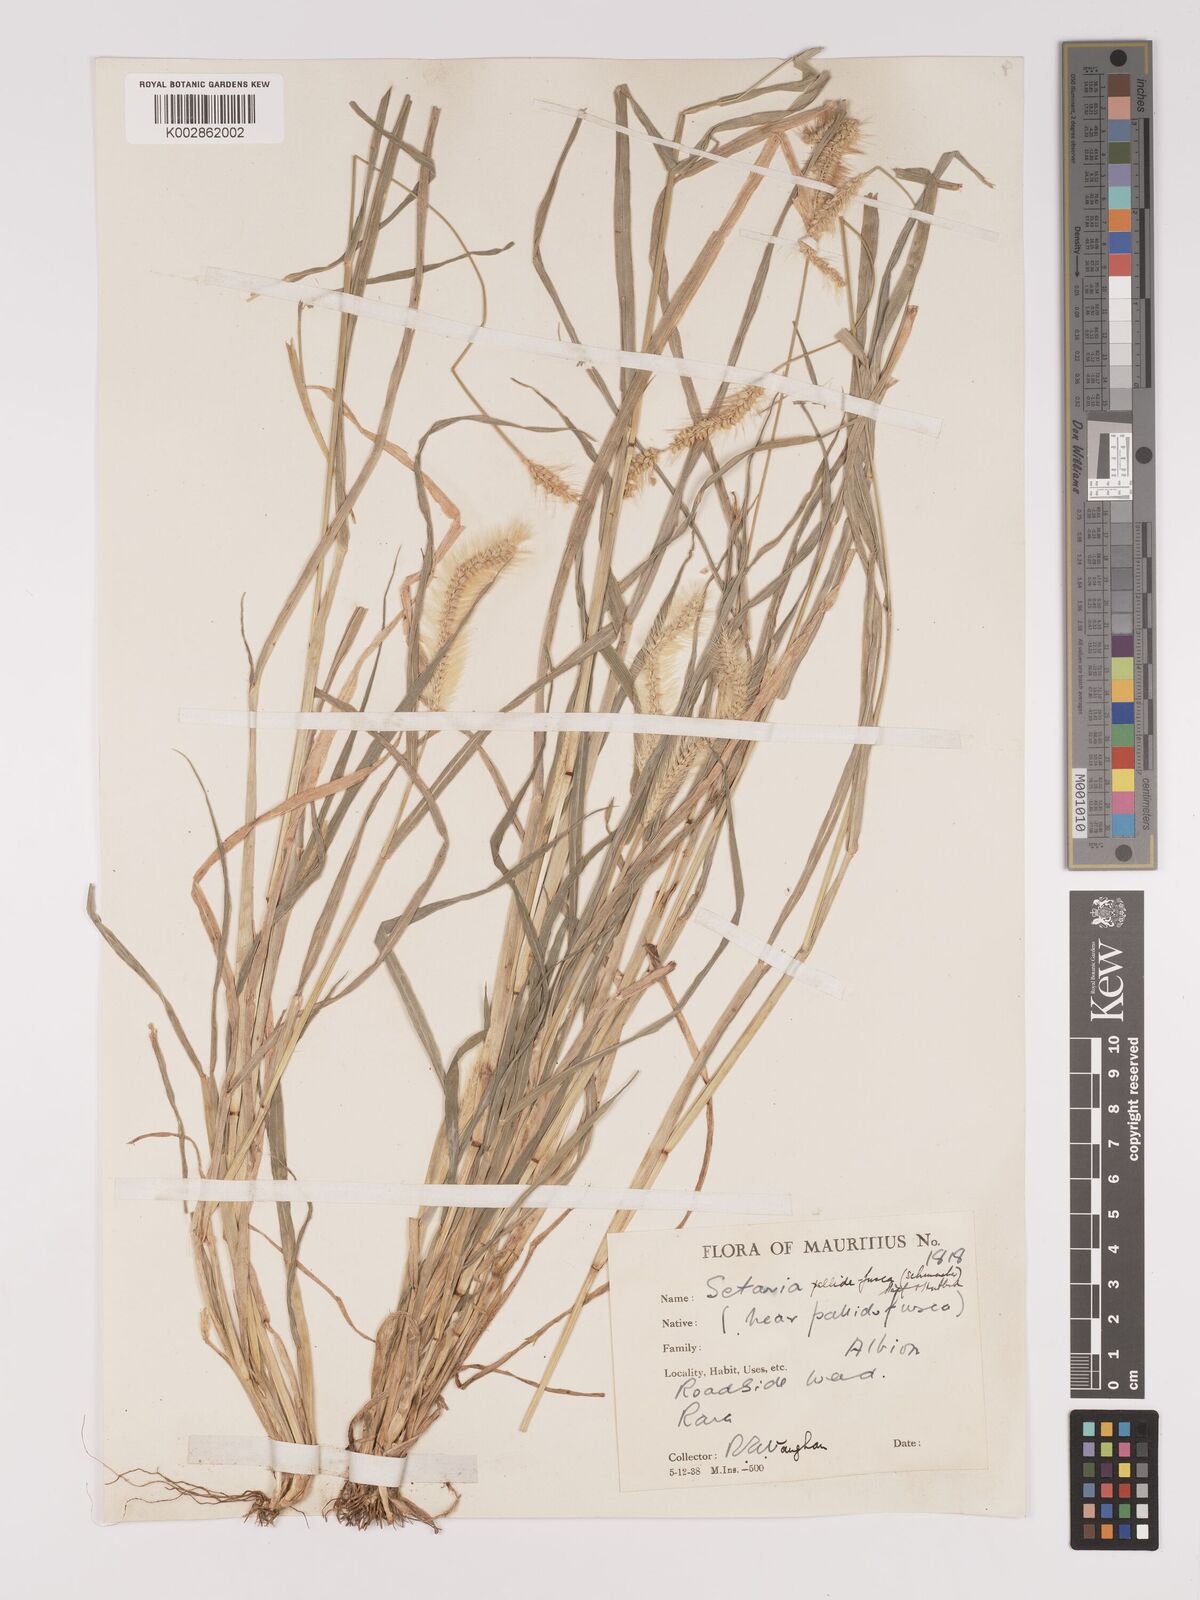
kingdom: Plantae
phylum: Tracheophyta
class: Liliopsida
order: Poales
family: Poaceae
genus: Setaria
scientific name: Setaria pumila
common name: Yellow bristle-grass
